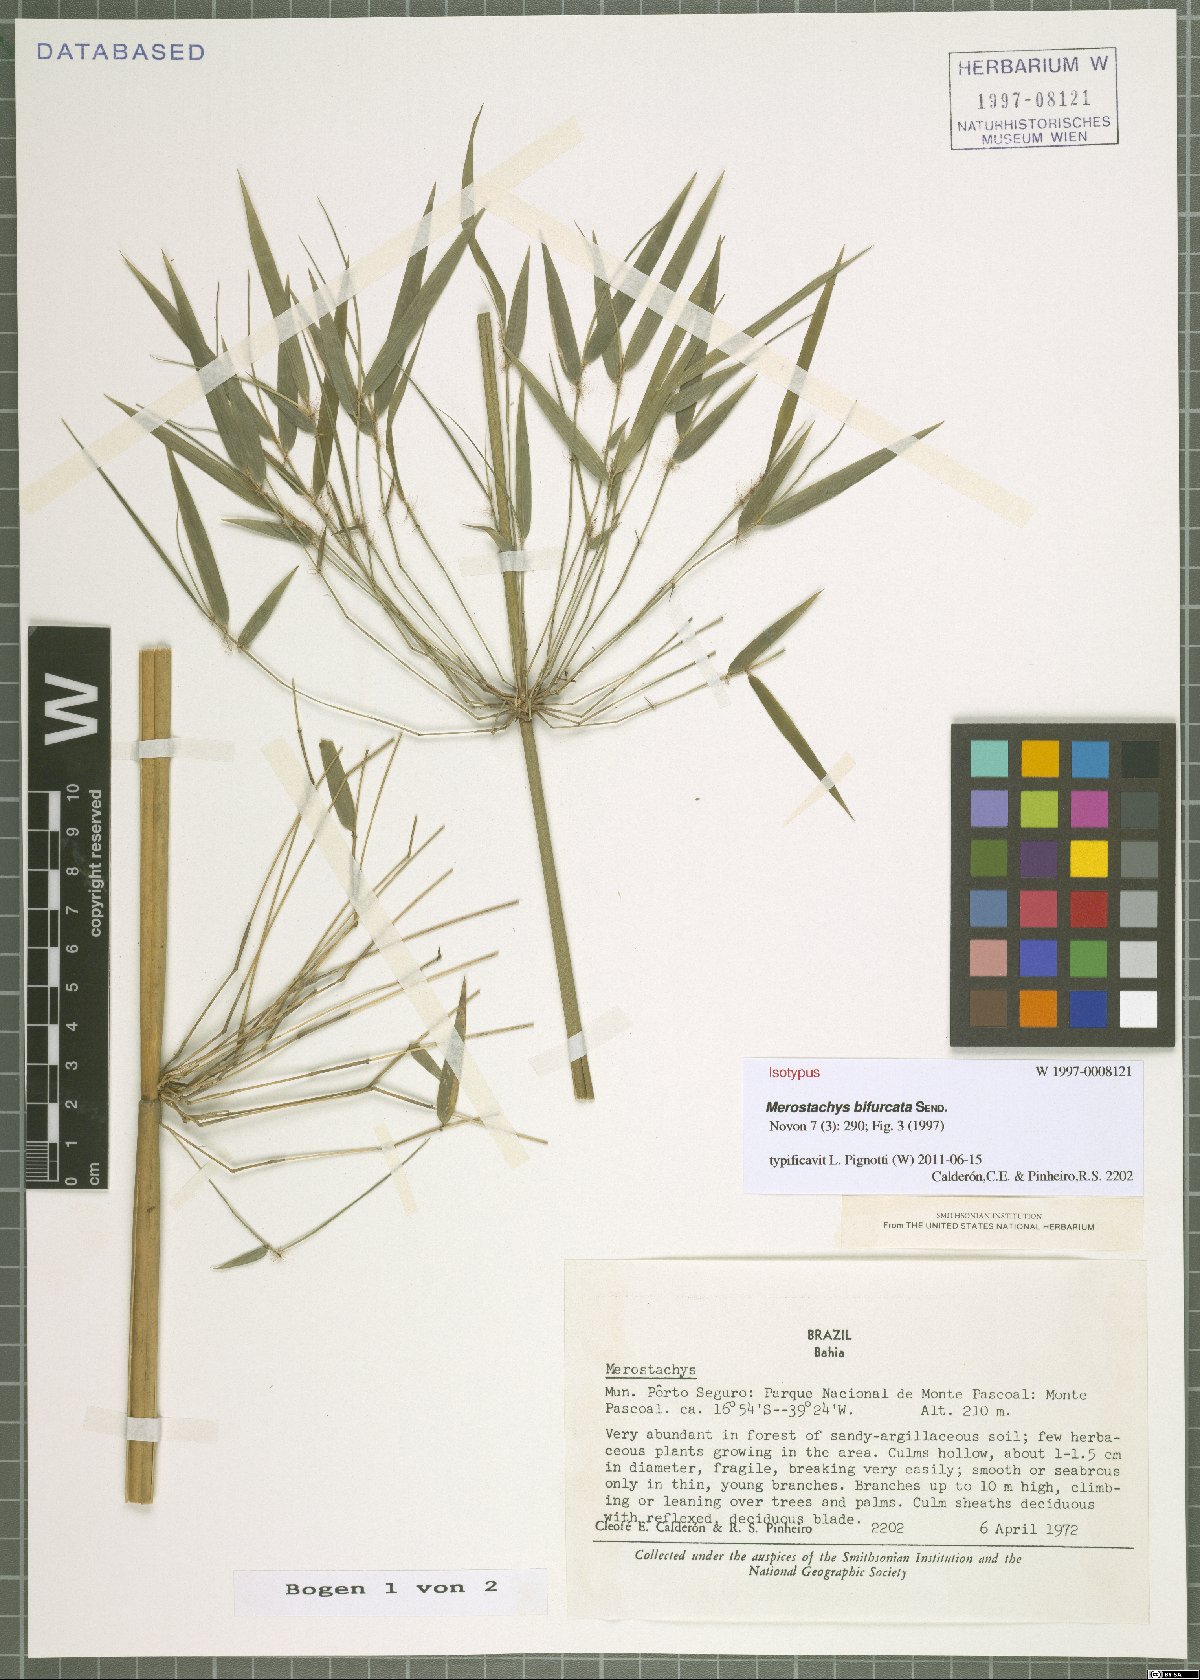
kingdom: Plantae
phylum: Tracheophyta
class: Liliopsida
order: Poales
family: Poaceae
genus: Merostachys
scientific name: Merostachys bifurcata
